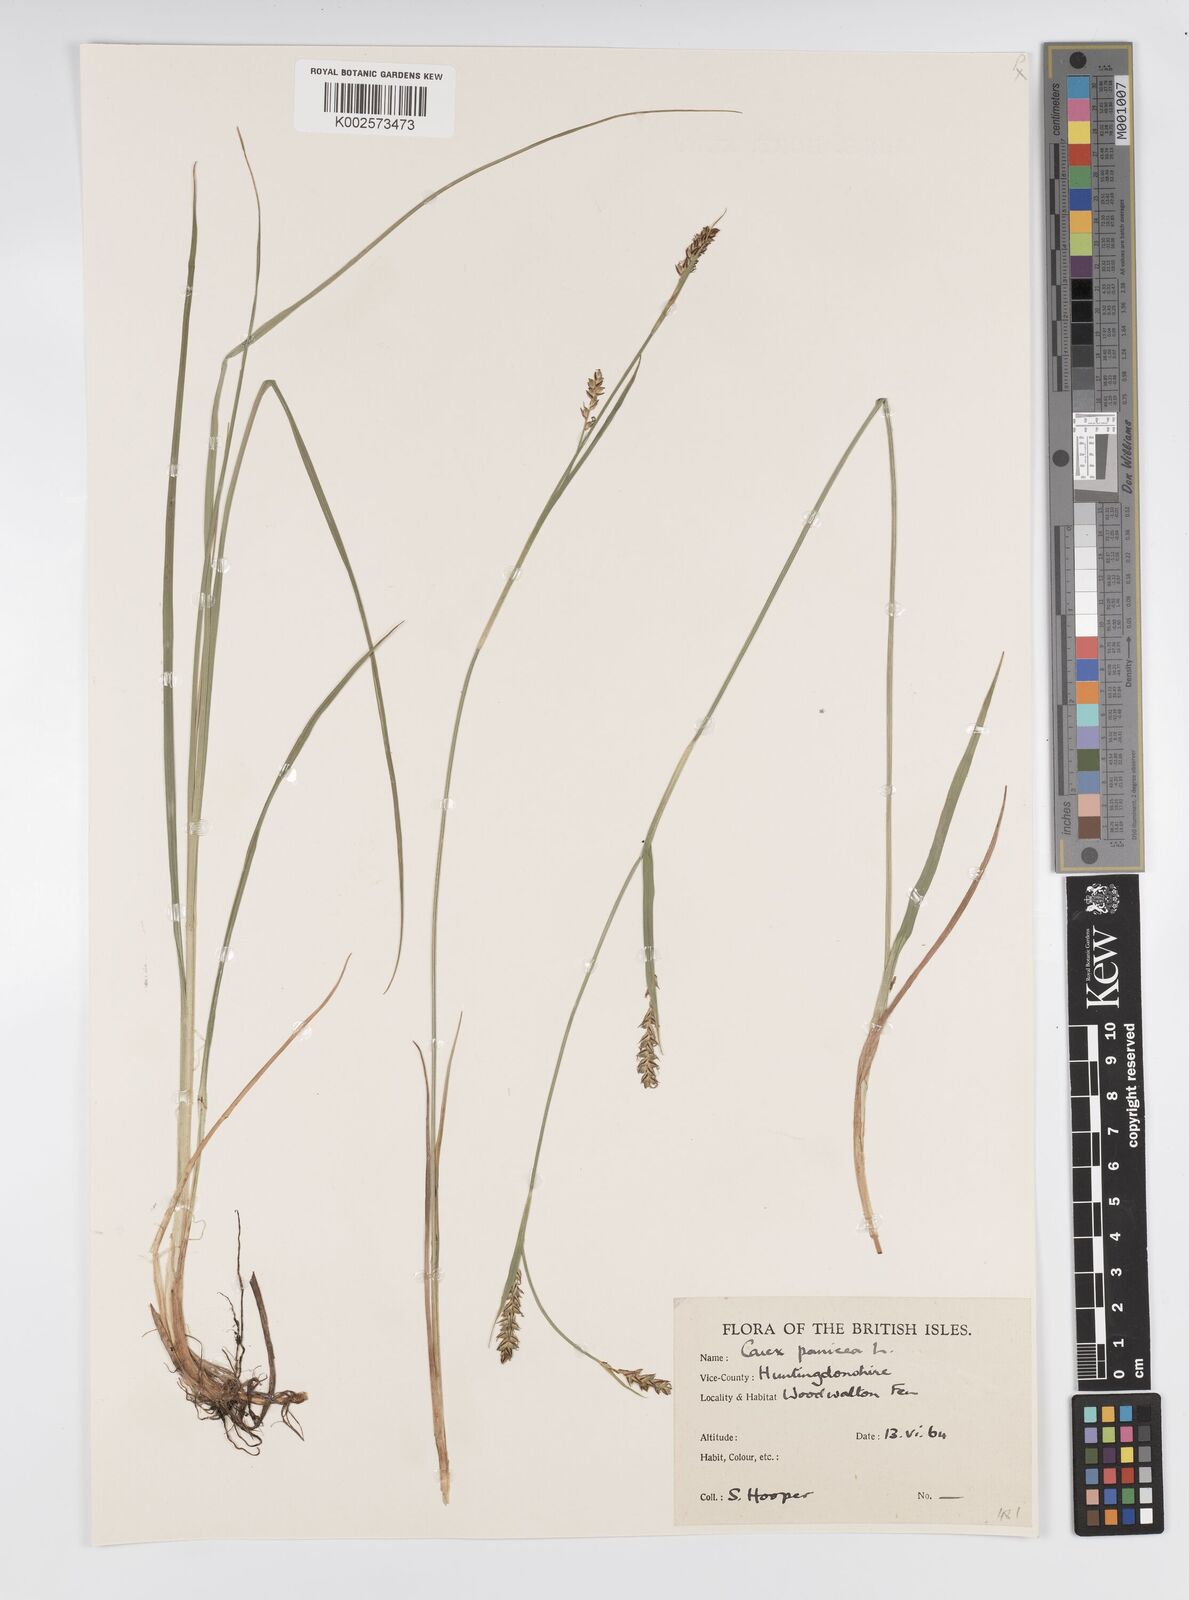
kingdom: Plantae
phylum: Tracheophyta
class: Liliopsida
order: Poales
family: Cyperaceae
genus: Carex
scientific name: Carex panicea
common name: Carnation sedge
